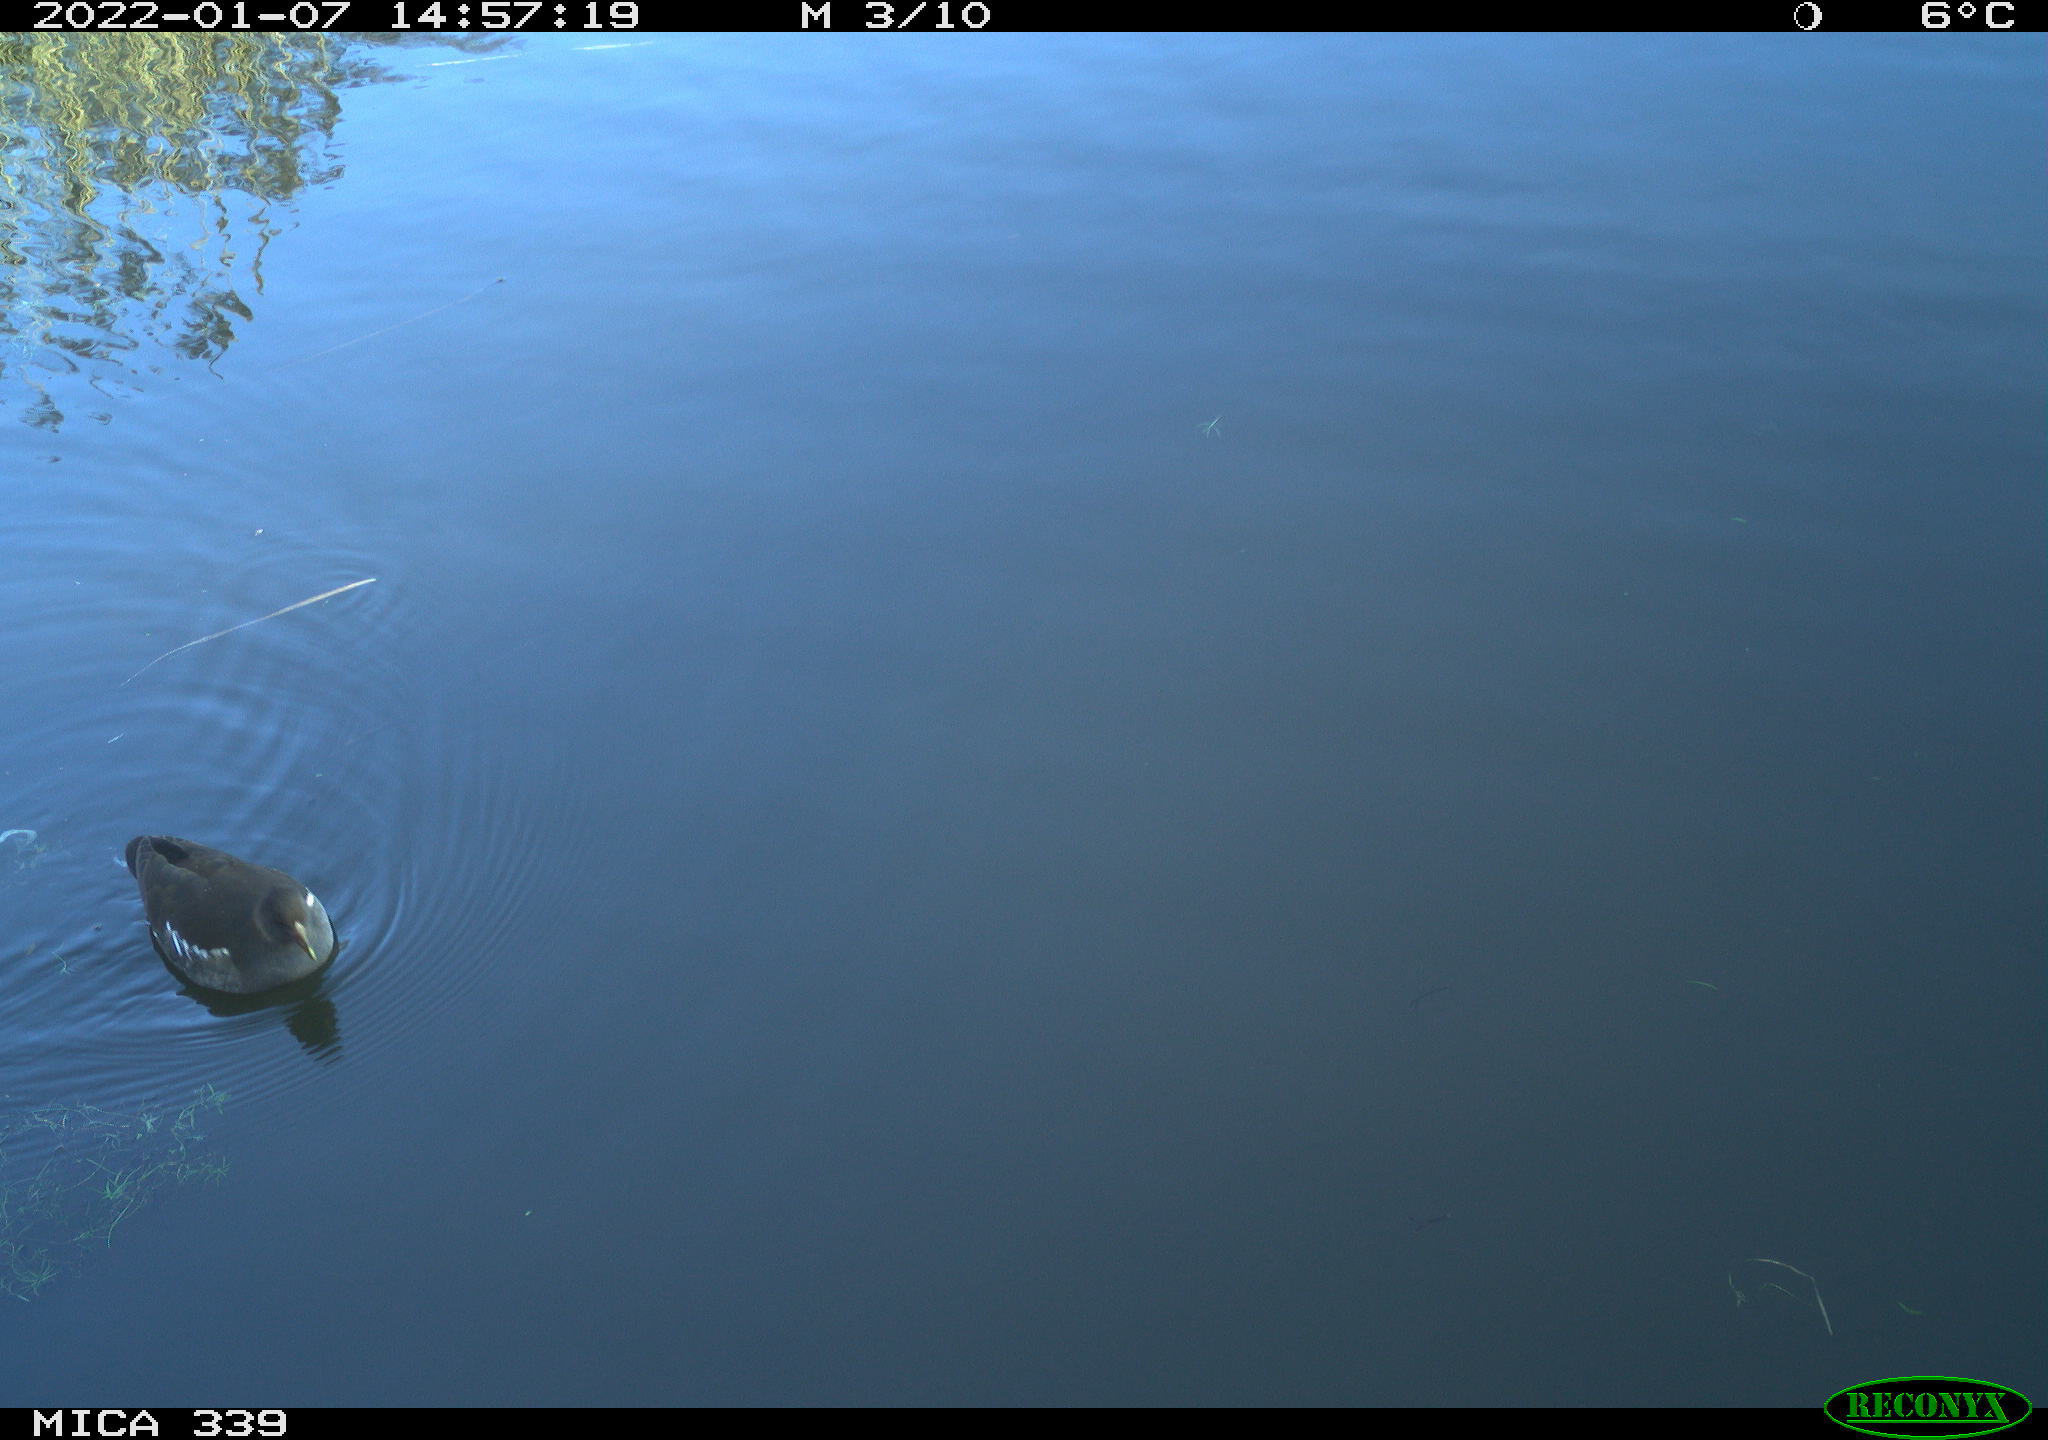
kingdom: Animalia
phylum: Chordata
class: Aves
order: Gruiformes
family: Rallidae
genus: Gallinula
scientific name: Gallinula chloropus
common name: Common moorhen
